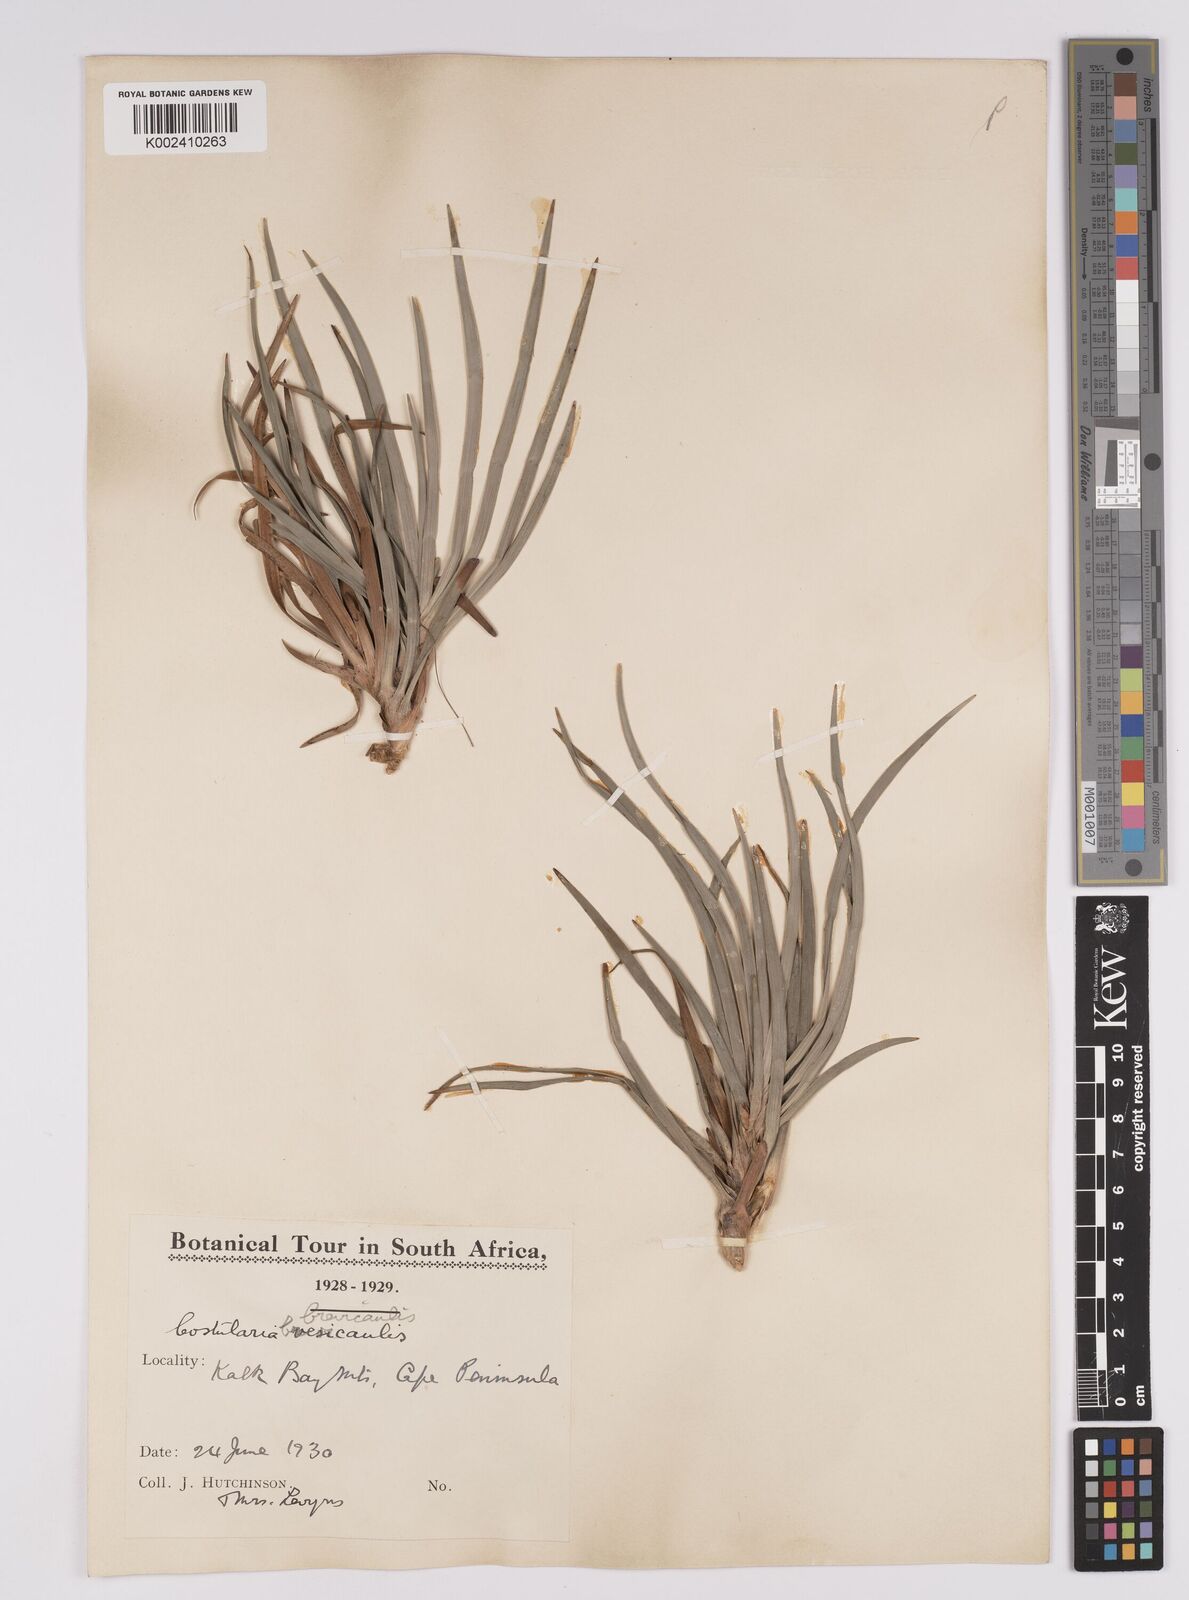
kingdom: Plantae
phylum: Tracheophyta
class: Liliopsida
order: Poales
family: Cyperaceae
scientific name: Cyperaceae
